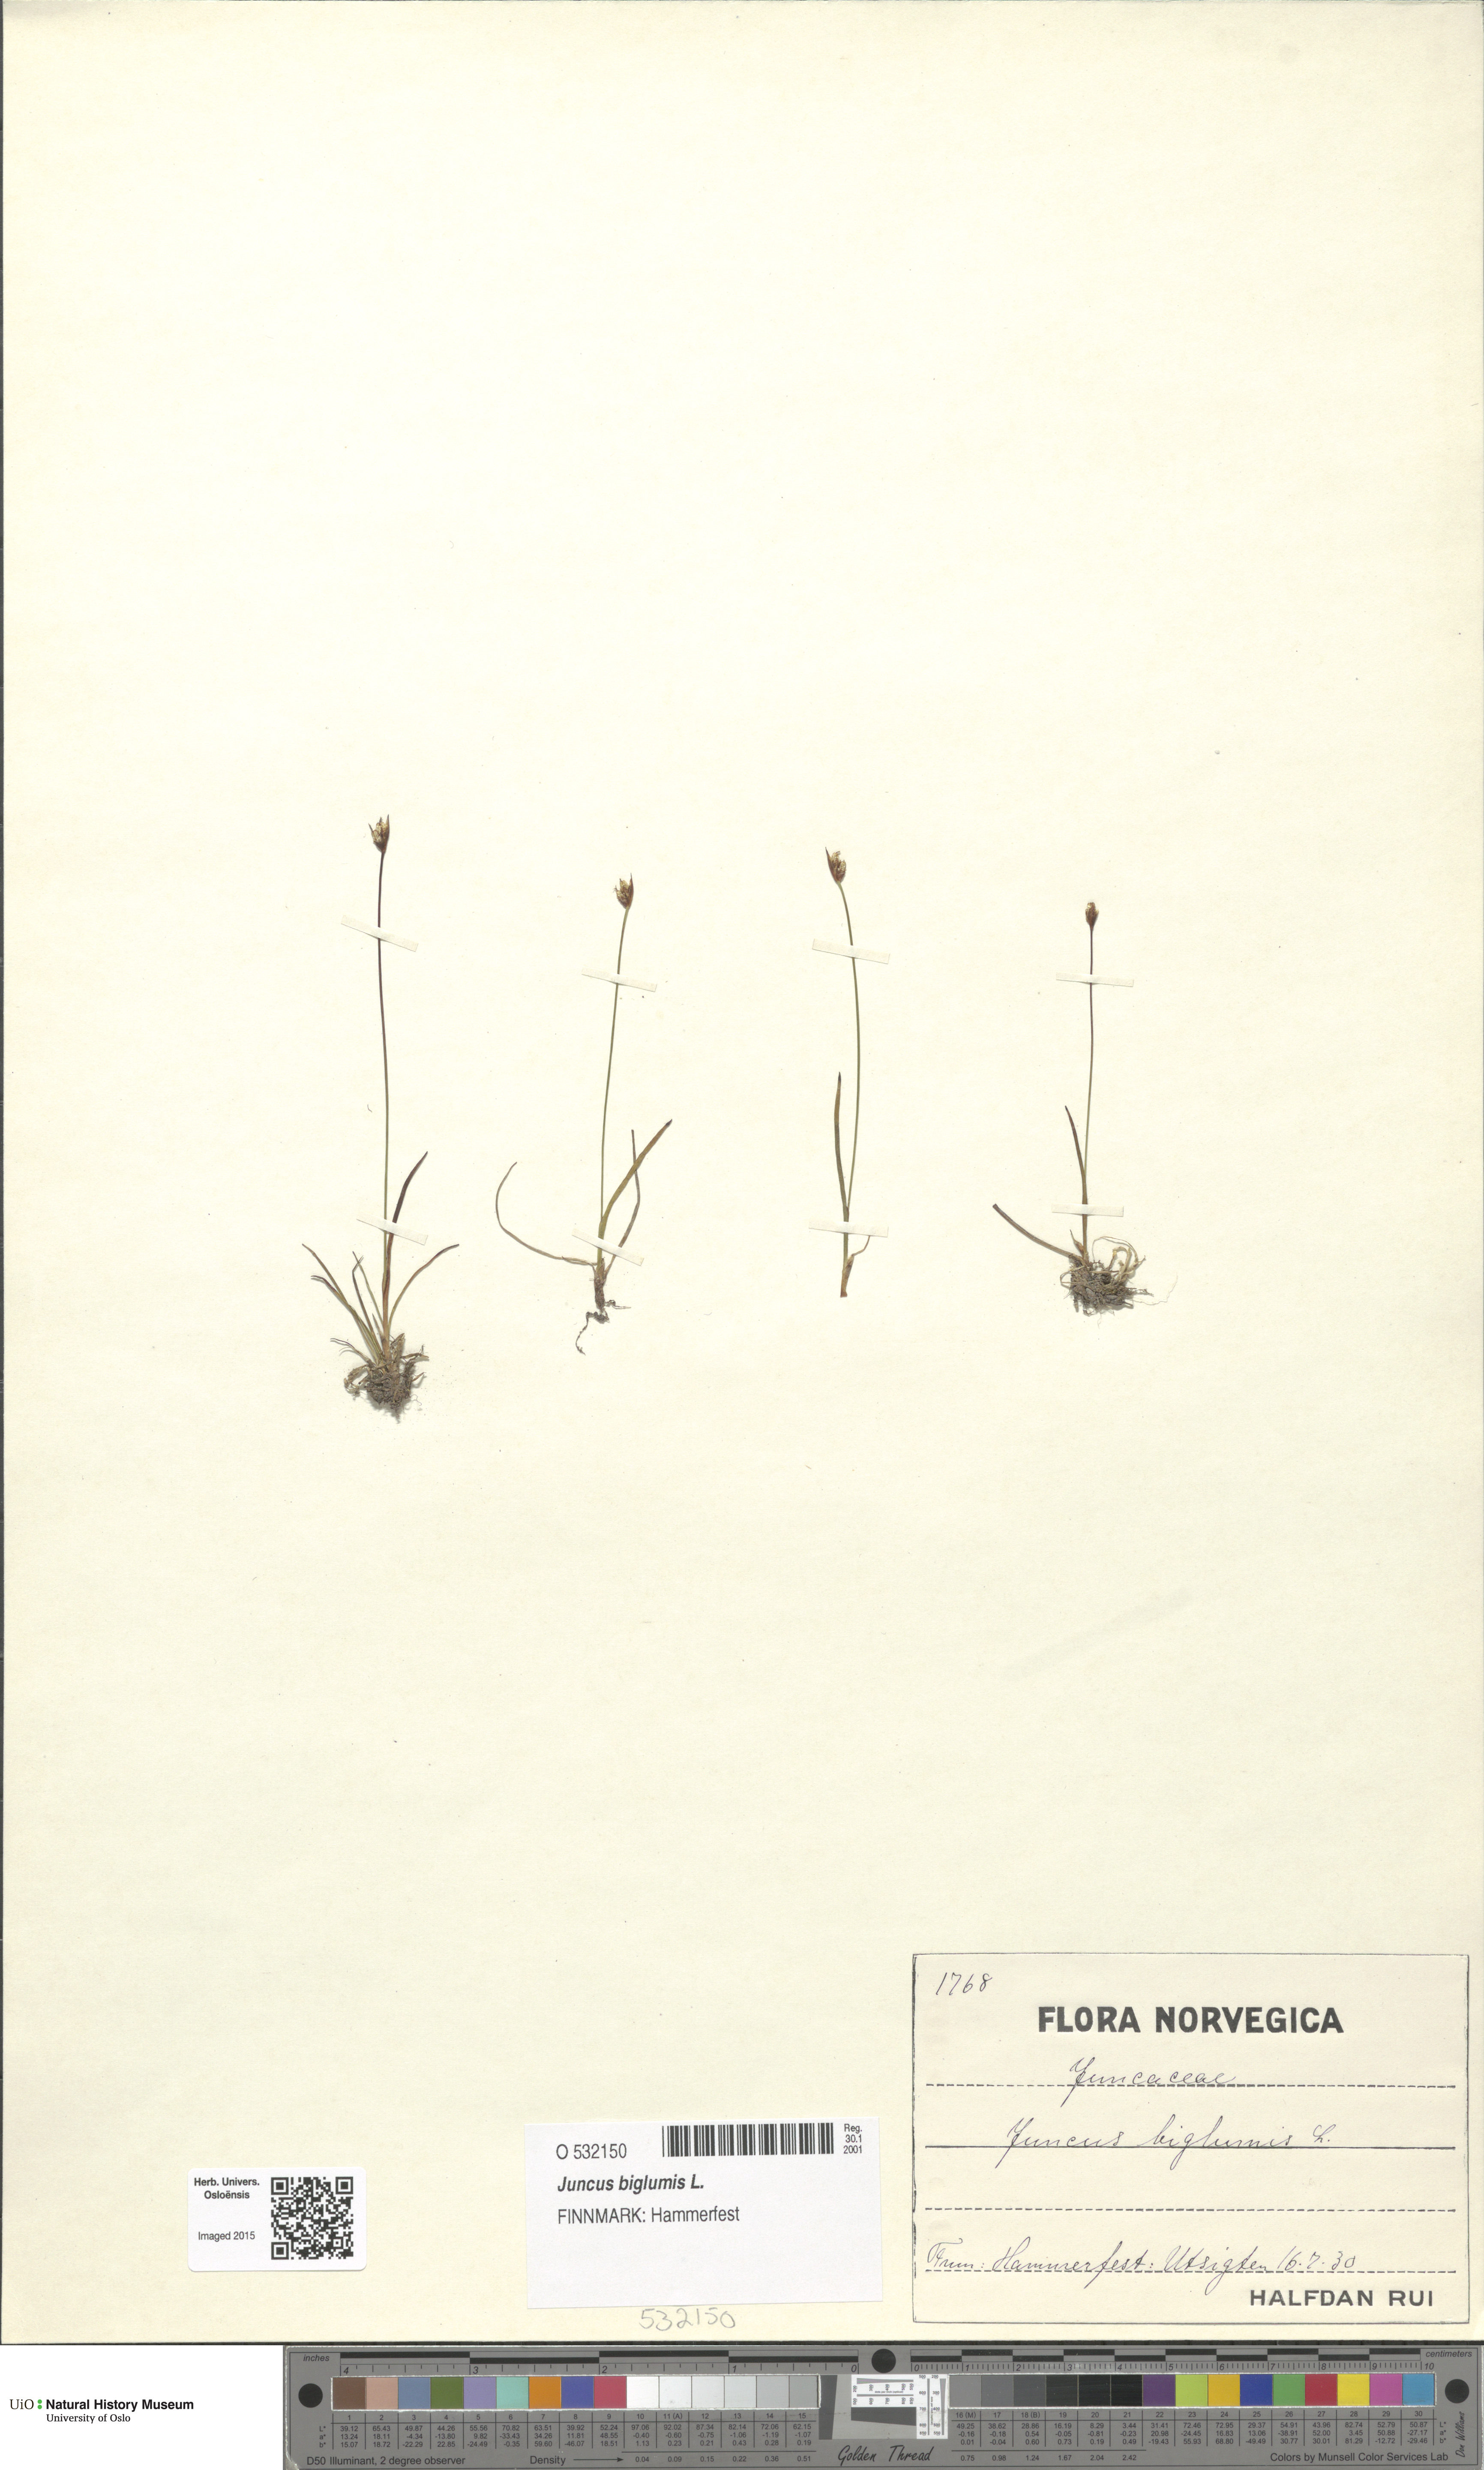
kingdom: Plantae
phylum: Tracheophyta
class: Liliopsida
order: Poales
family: Juncaceae
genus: Juncus
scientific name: Juncus biglumis
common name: Two-flowered rush
